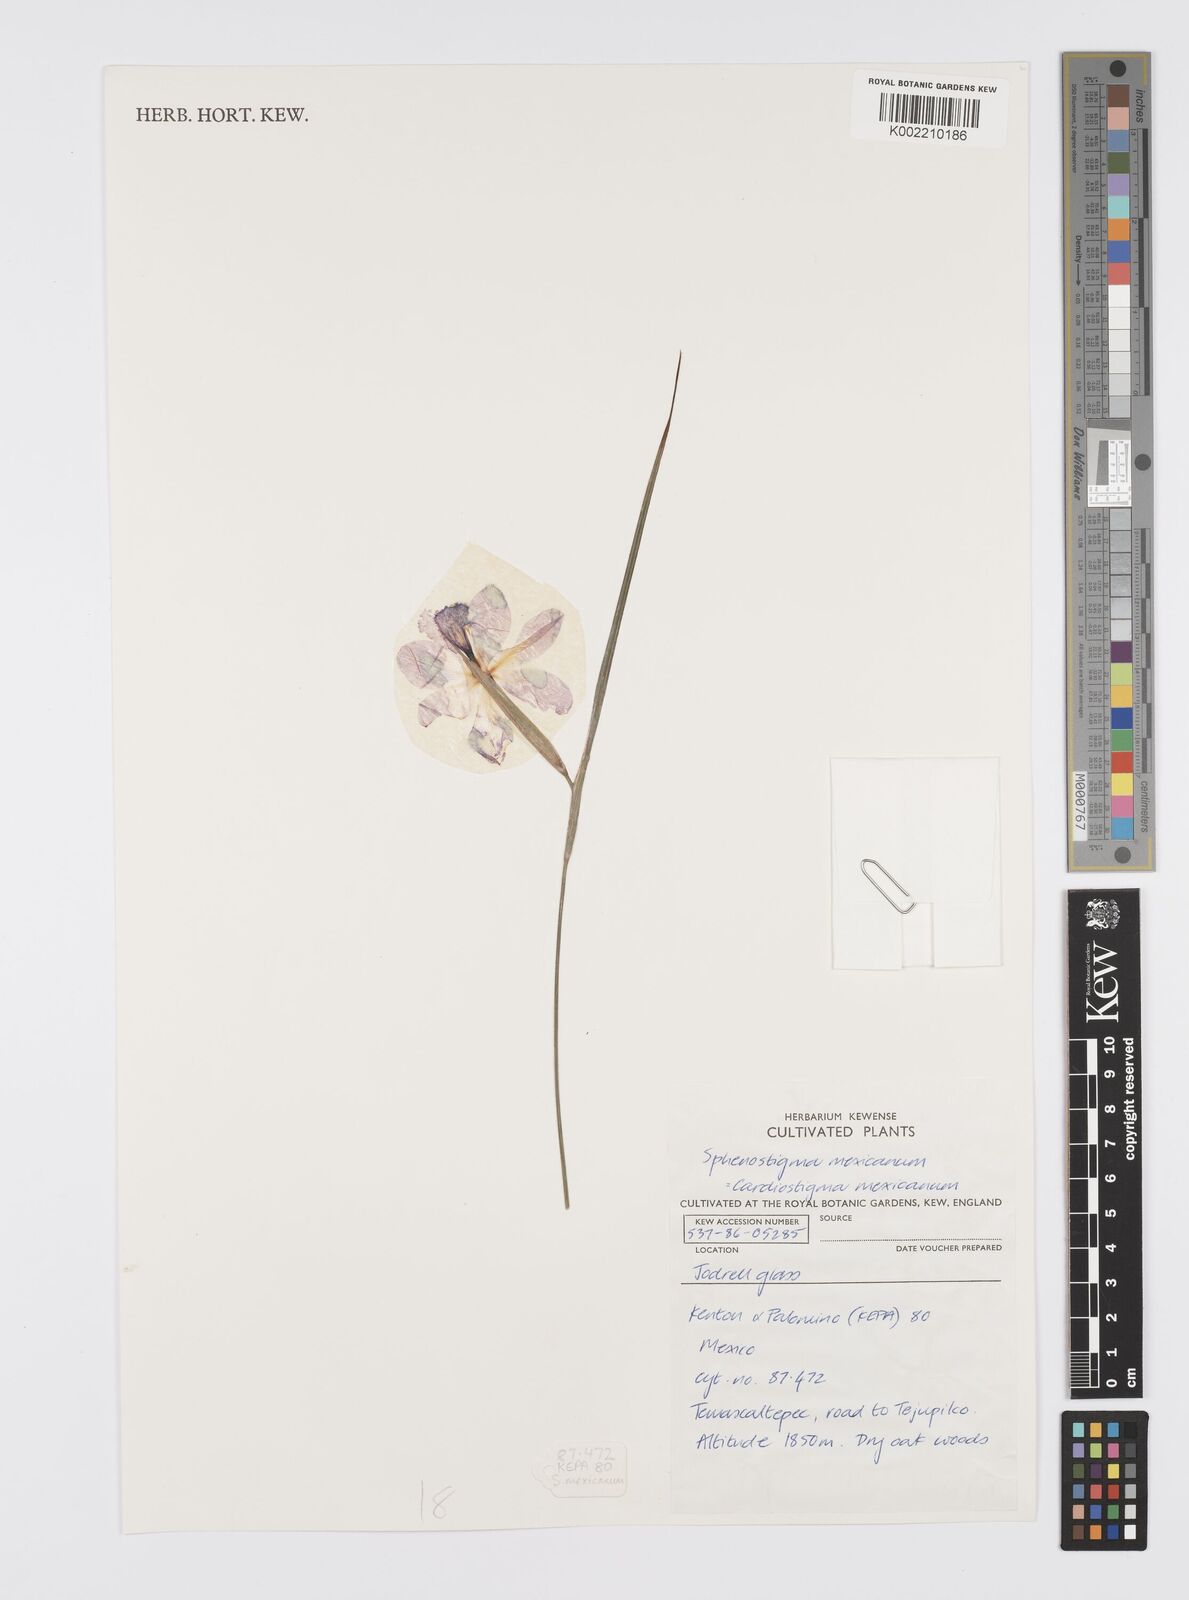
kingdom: Plantae
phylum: Tracheophyta
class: Liliopsida
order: Asparagales
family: Iridaceae
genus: Gelasine
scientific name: Gelasine
